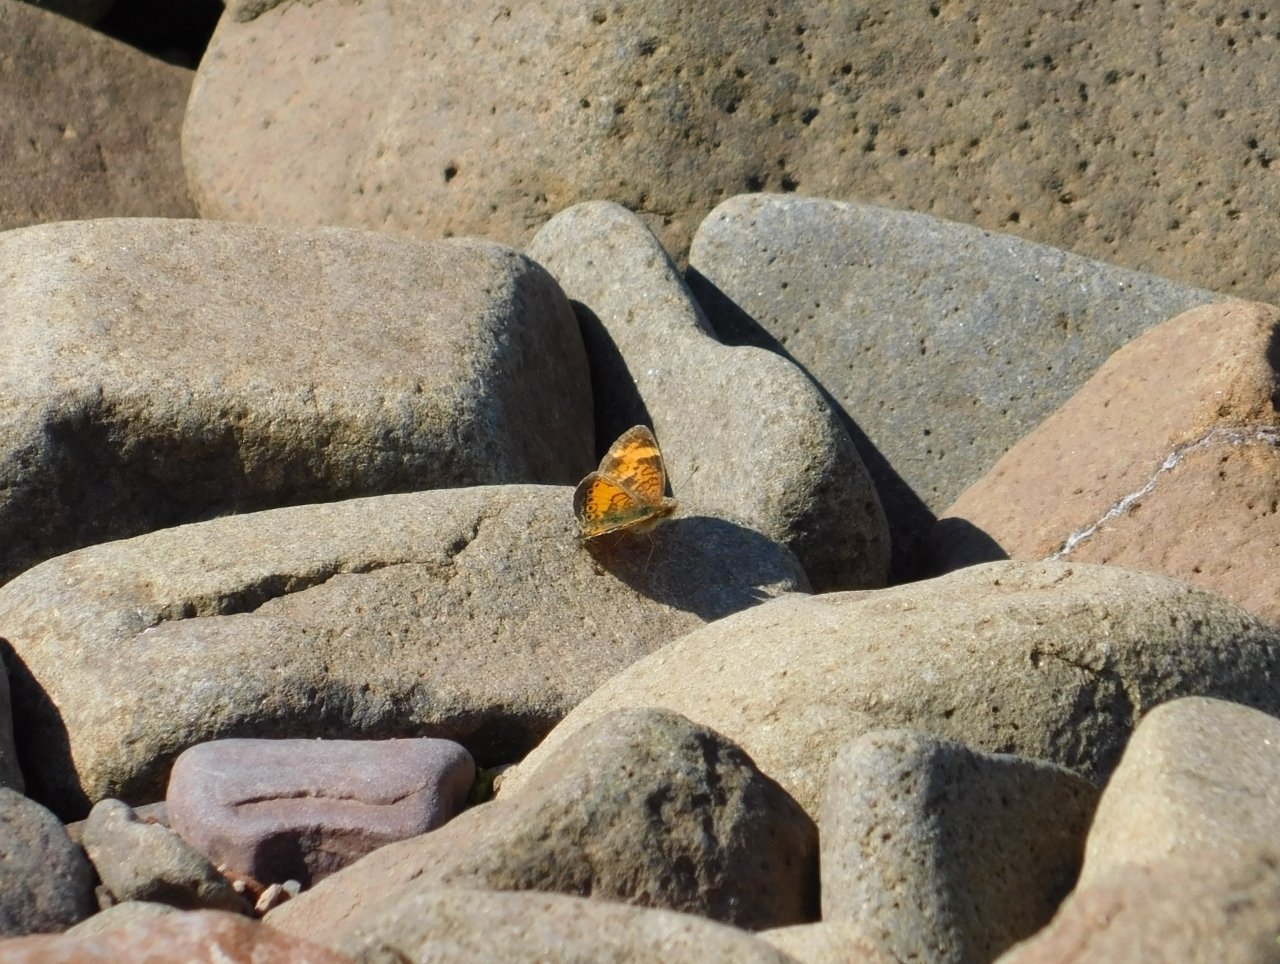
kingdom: Animalia
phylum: Arthropoda
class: Insecta
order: Lepidoptera
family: Nymphalidae
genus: Phyciodes
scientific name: Phyciodes tharos
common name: Northern Crescent
